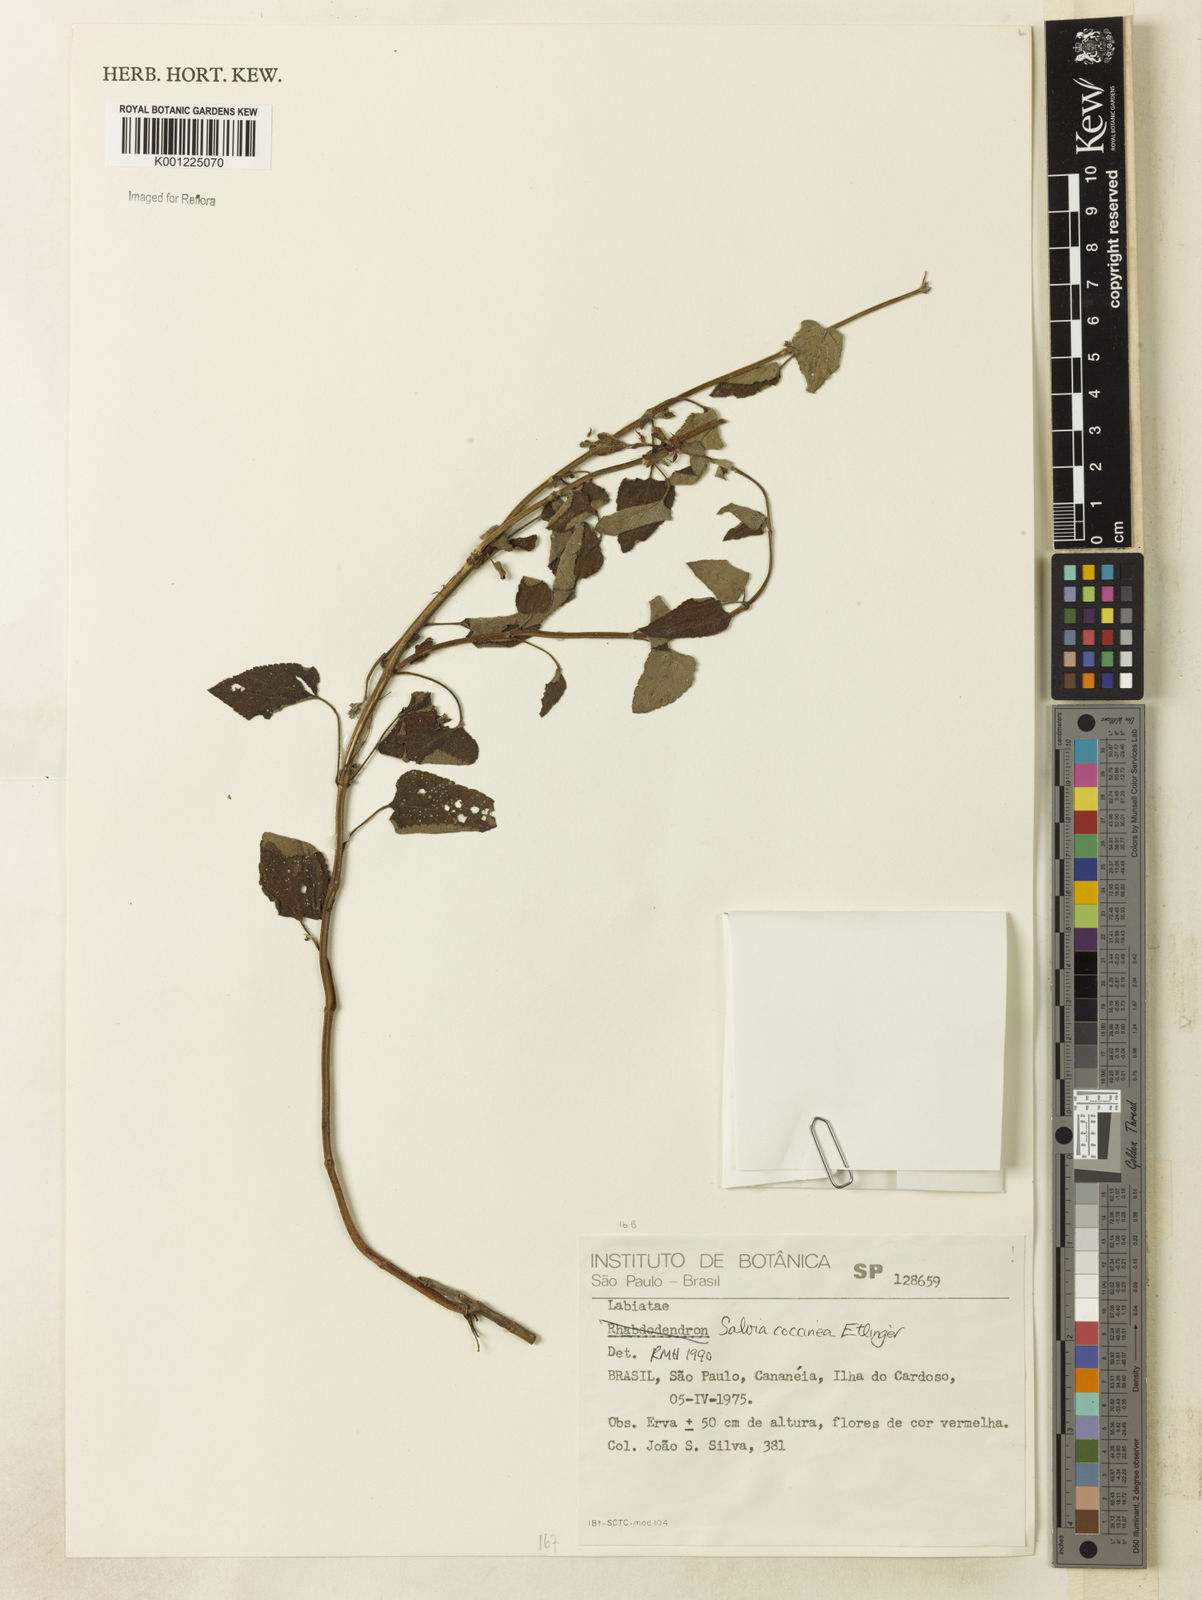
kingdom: Plantae
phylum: Tracheophyta
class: Magnoliopsida
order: Lamiales
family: Lamiaceae
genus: Salvia
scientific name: Salvia coccinea
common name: Blood sage
